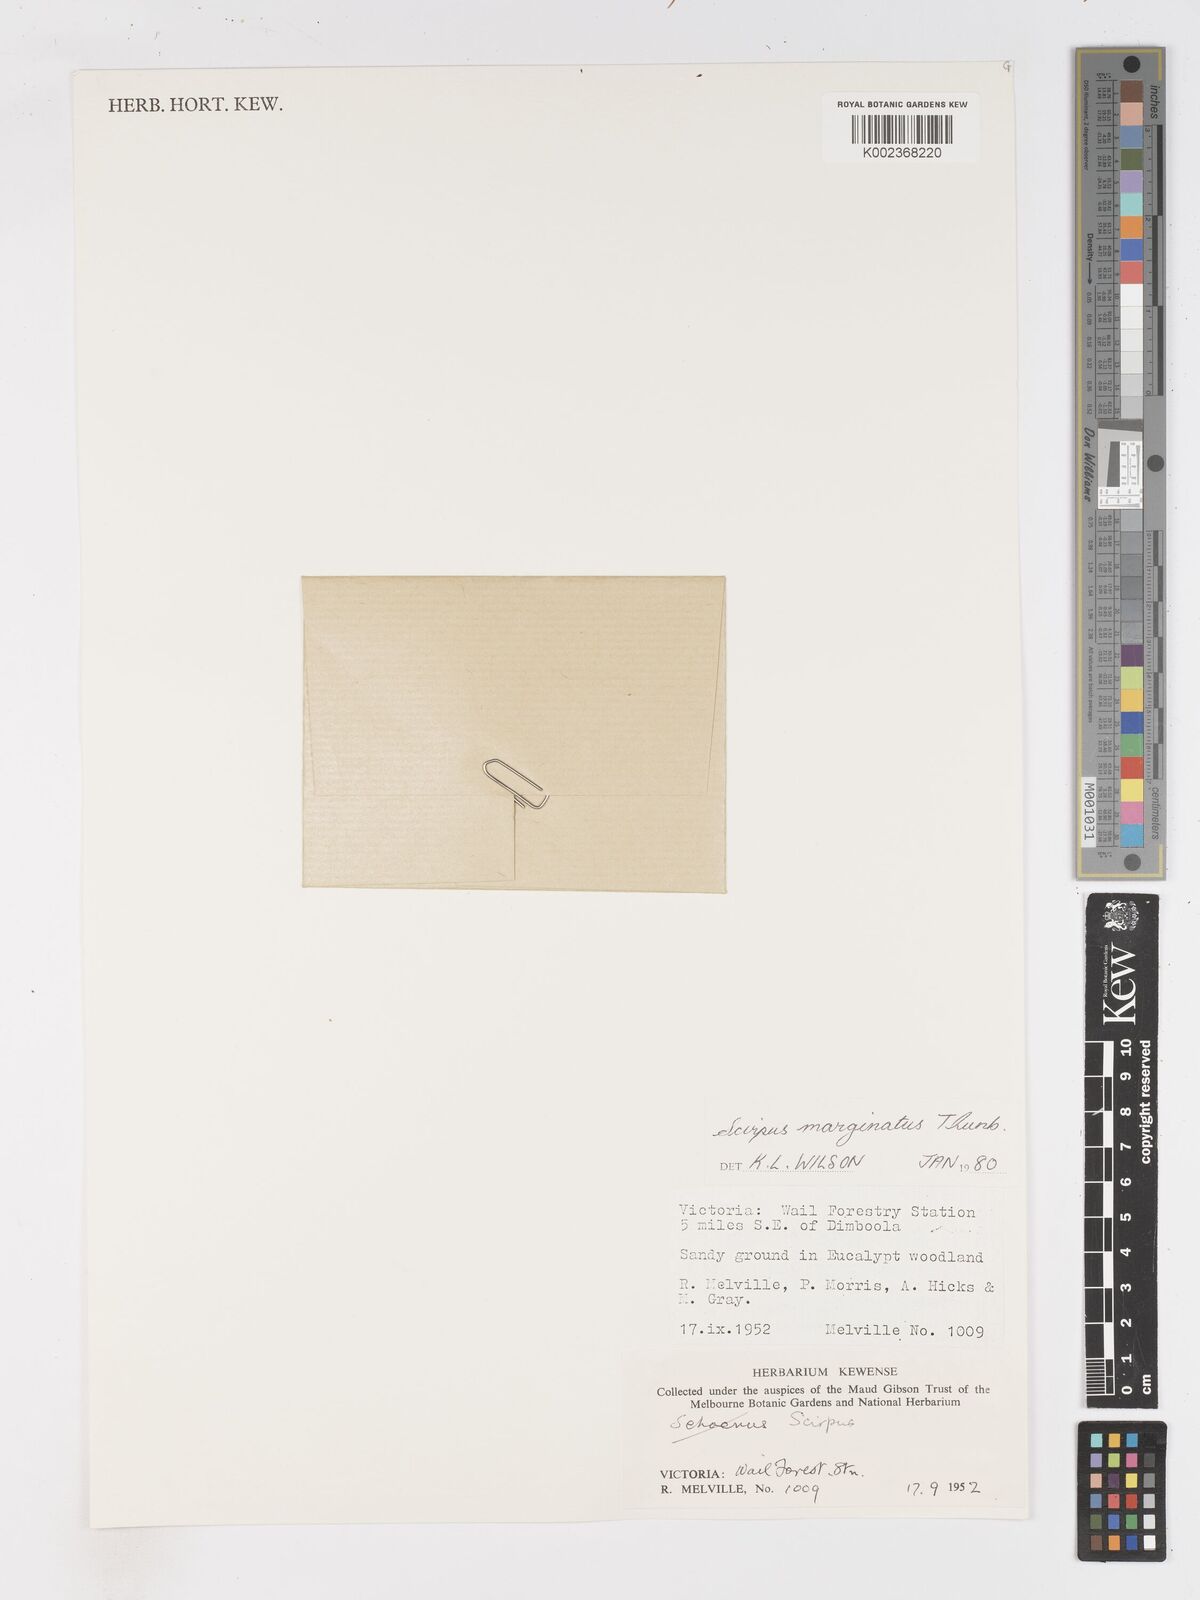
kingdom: Plantae
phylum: Tracheophyta
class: Liliopsida
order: Poales
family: Cyperaceae
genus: Isolepis
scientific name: Isolepis marginata
